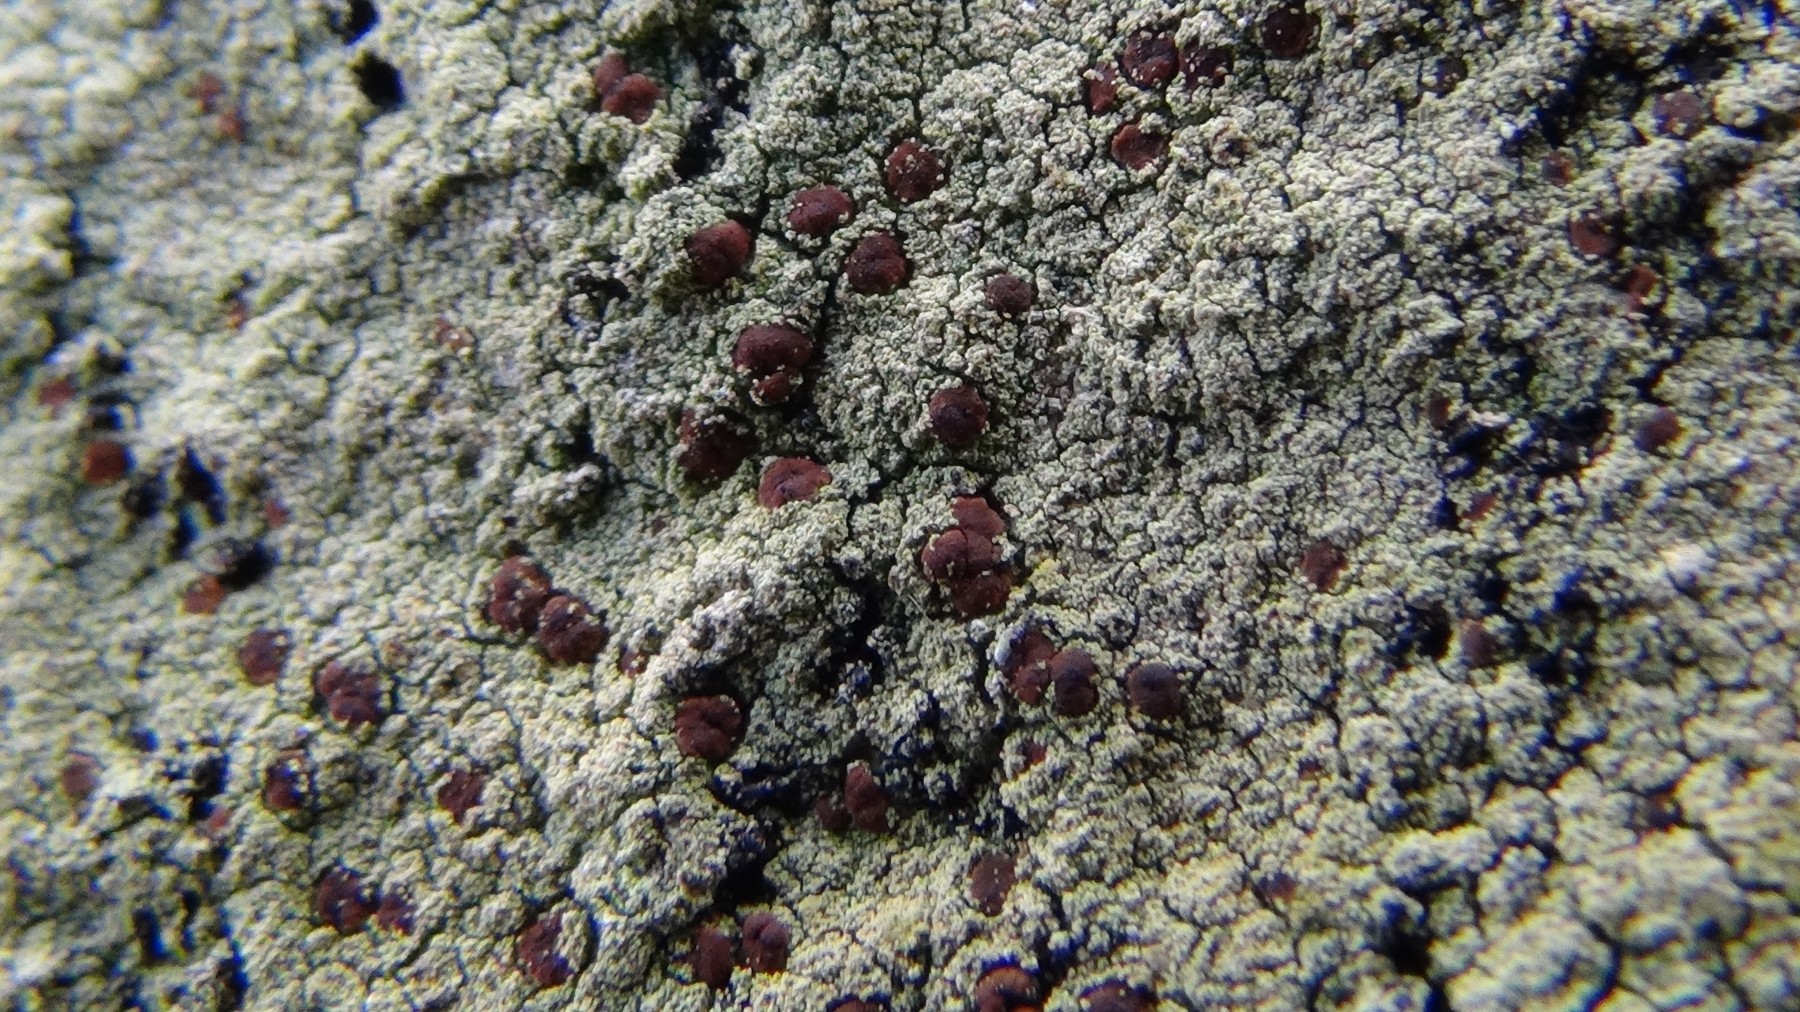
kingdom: Fungi
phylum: Ascomycota
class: Lecanoromycetes
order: Lecanorales
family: Lecanoraceae
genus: Pyrrhospora
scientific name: Pyrrhospora quernea
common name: almindelig rødskivelav
